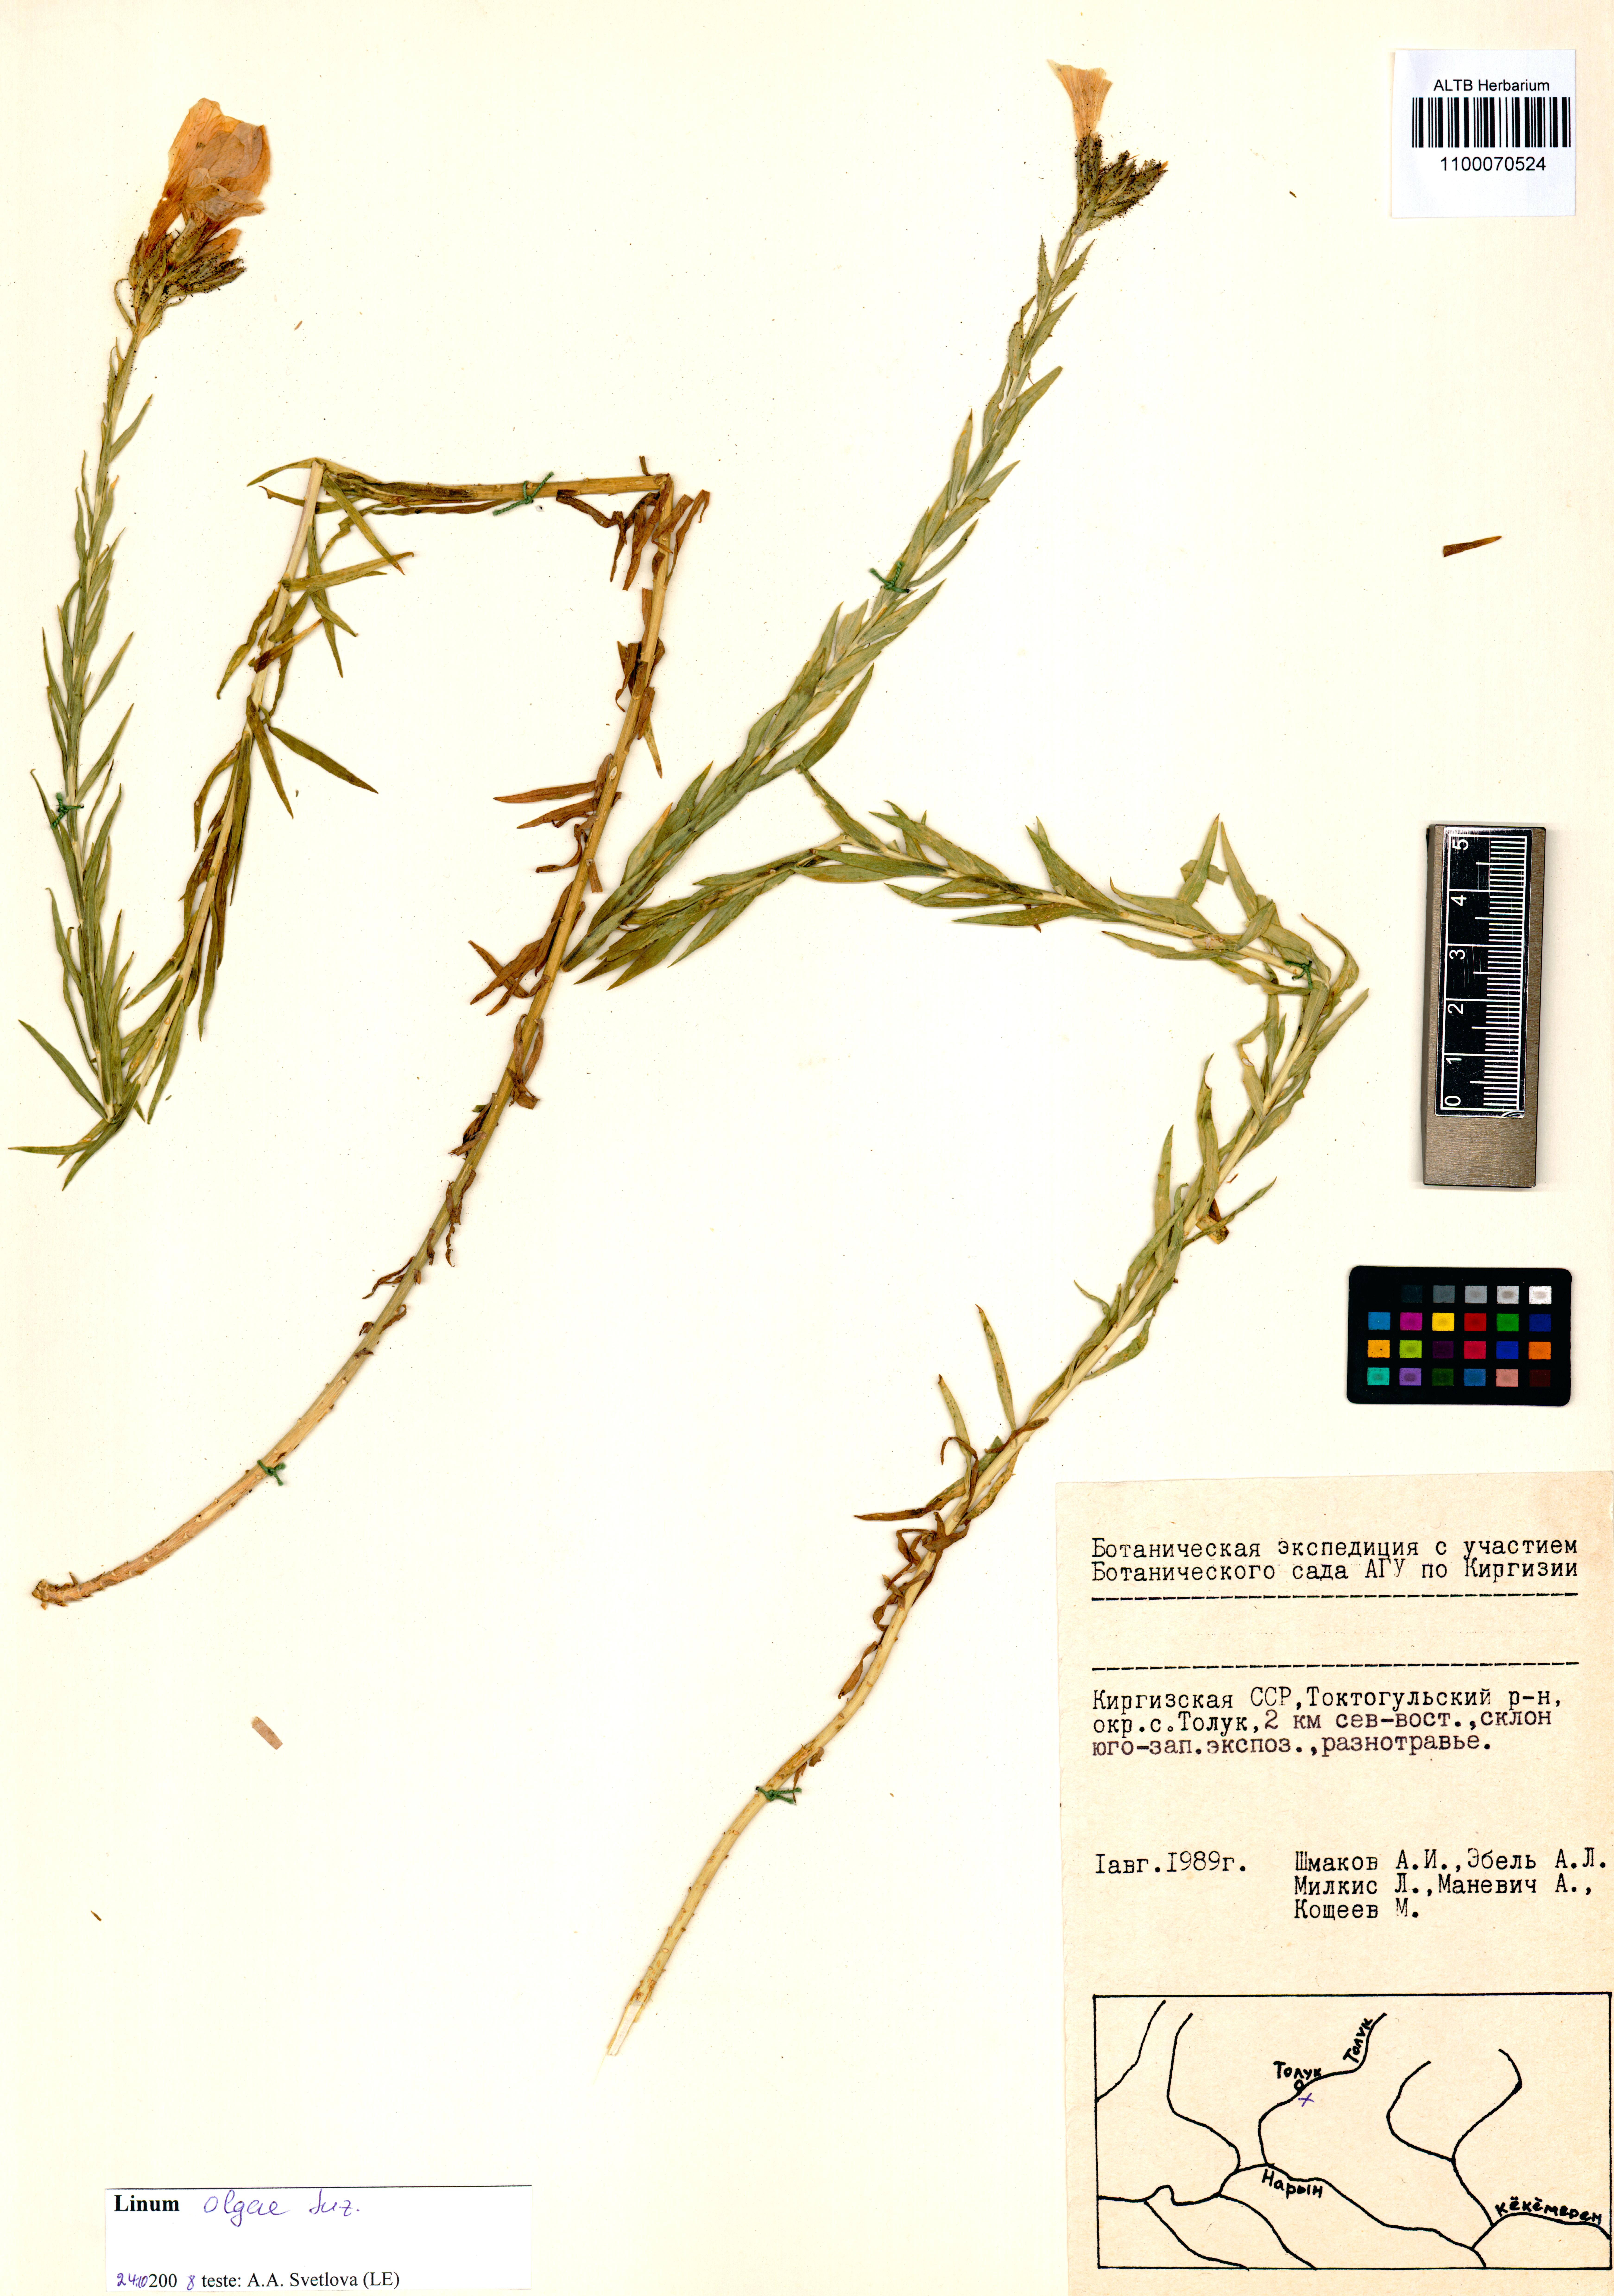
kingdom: Plantae
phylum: Tracheophyta
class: Magnoliopsida
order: Malpighiales
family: Linaceae
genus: Linum
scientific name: Linum olgae
